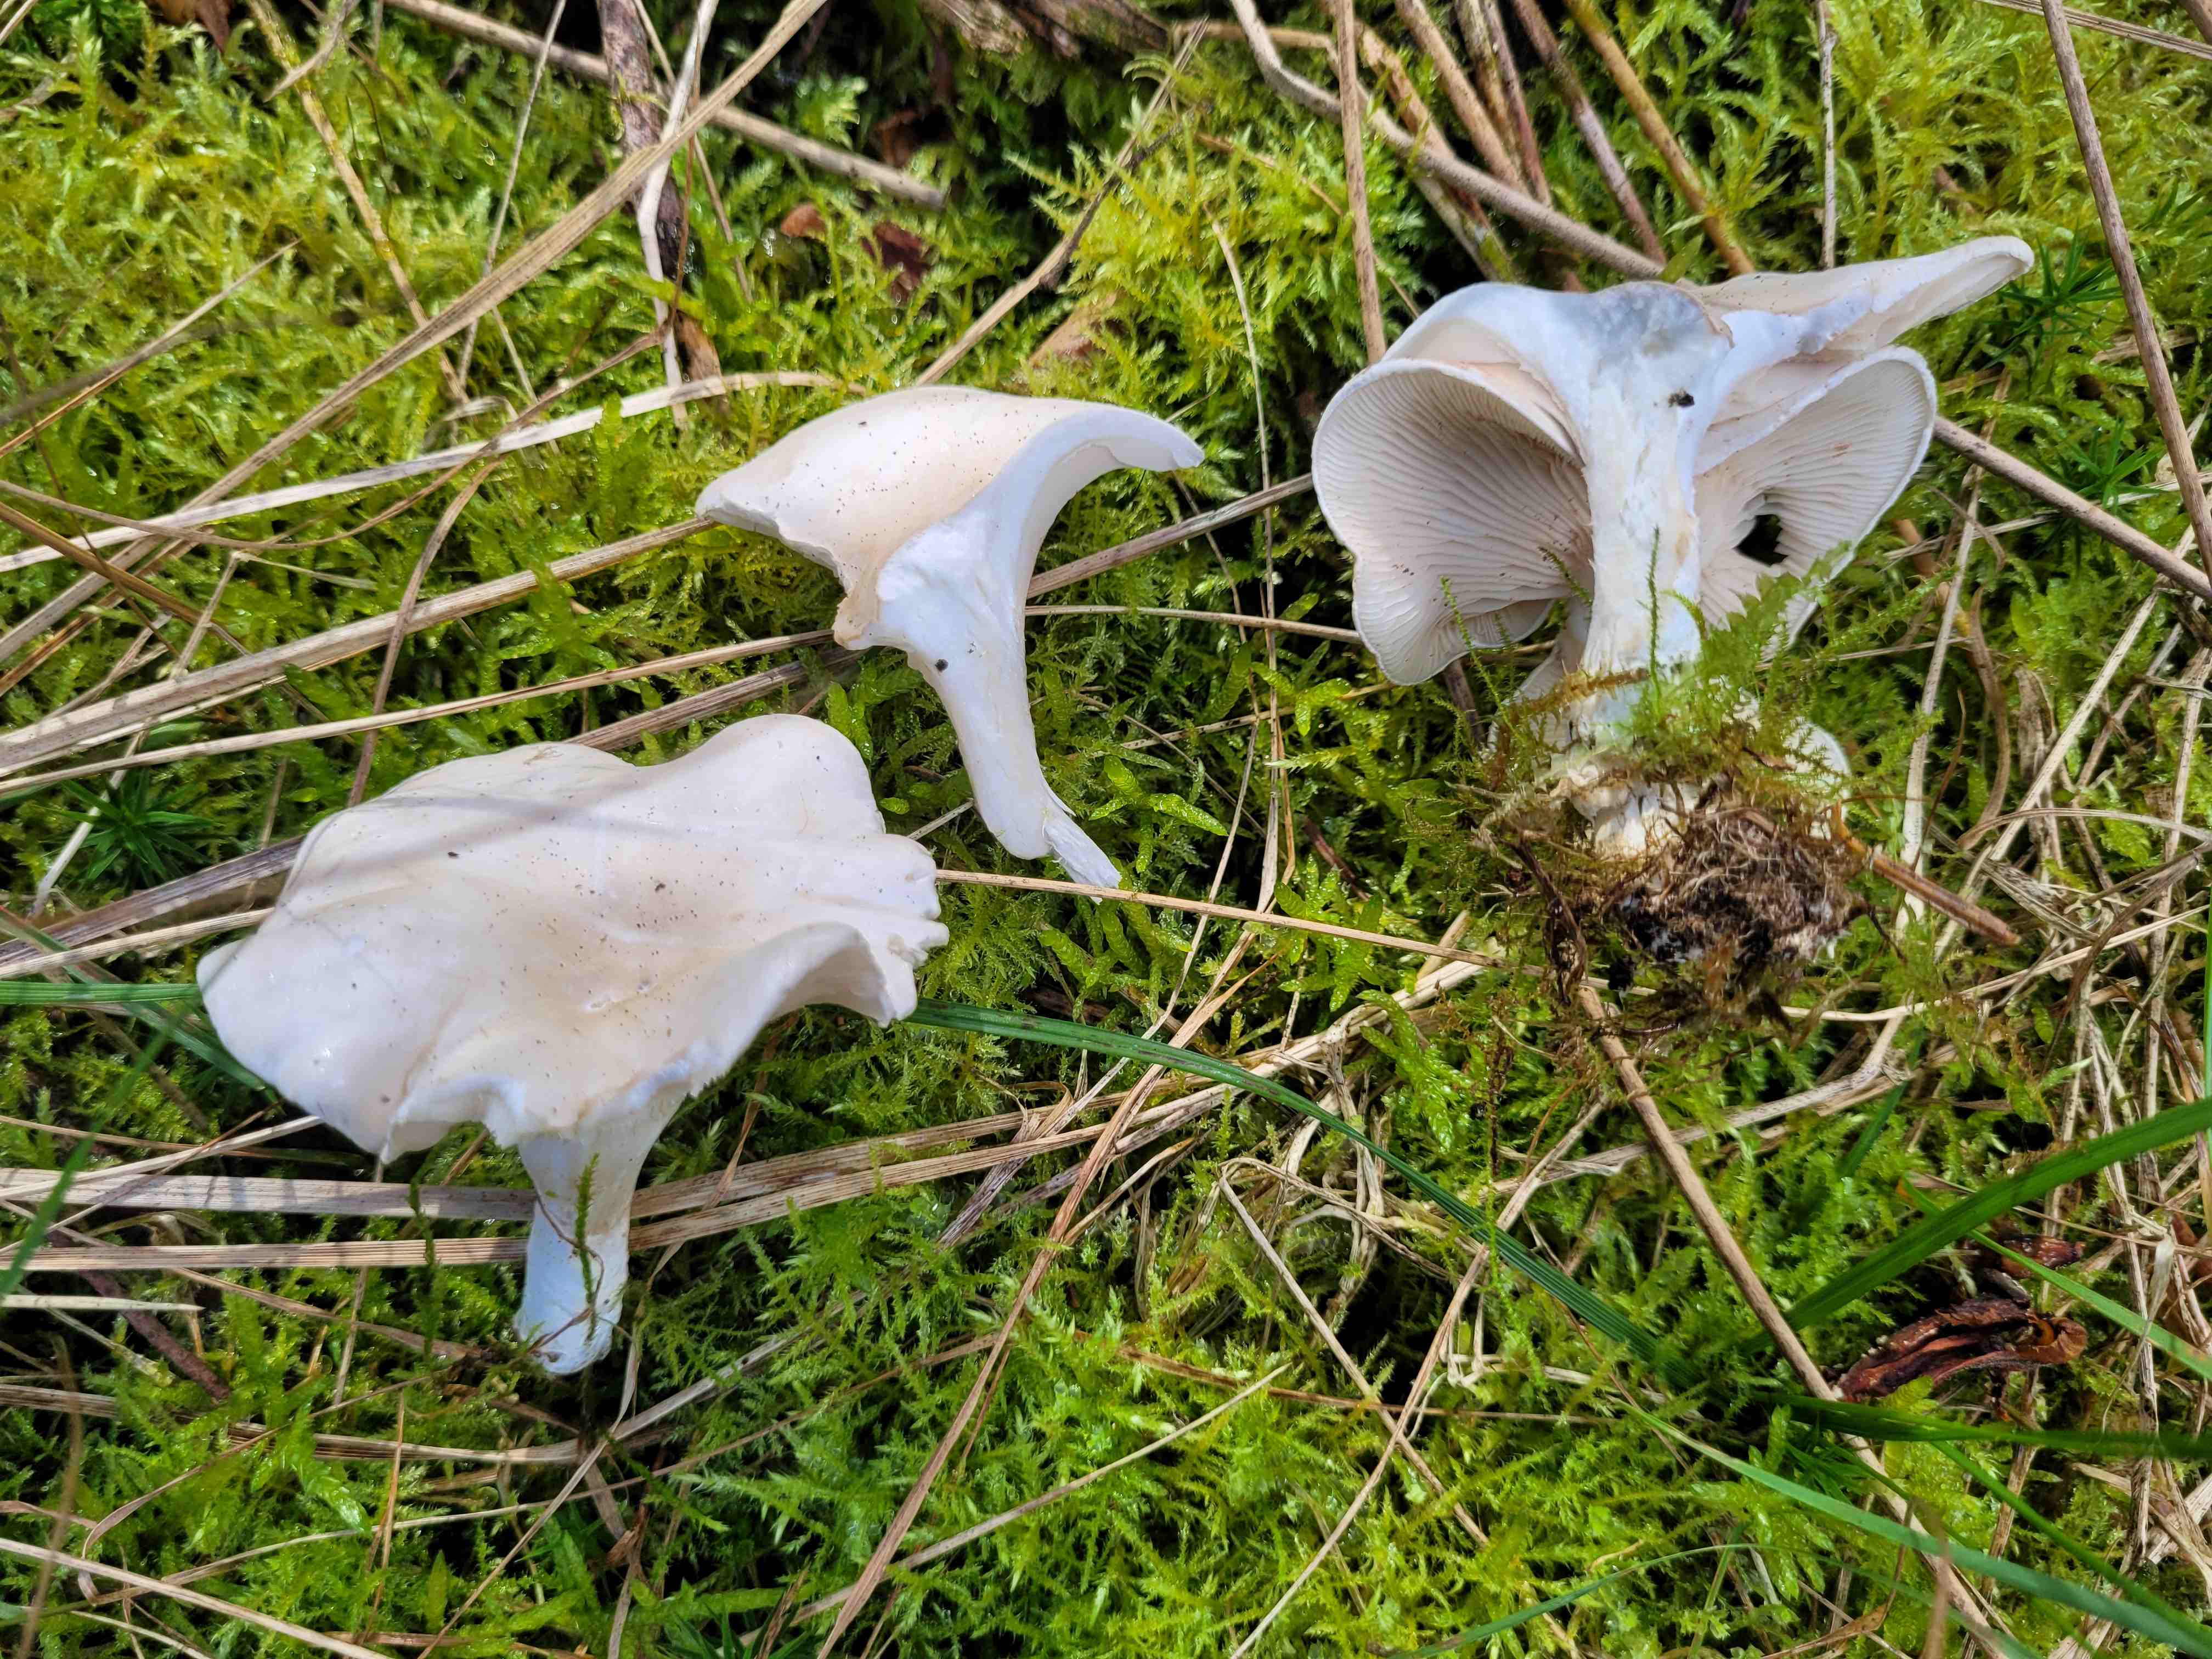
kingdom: Fungi
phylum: Basidiomycota
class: Agaricomycetes
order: Agaricales
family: Entolomataceae
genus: Clitopilus
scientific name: Clitopilus prunulus
